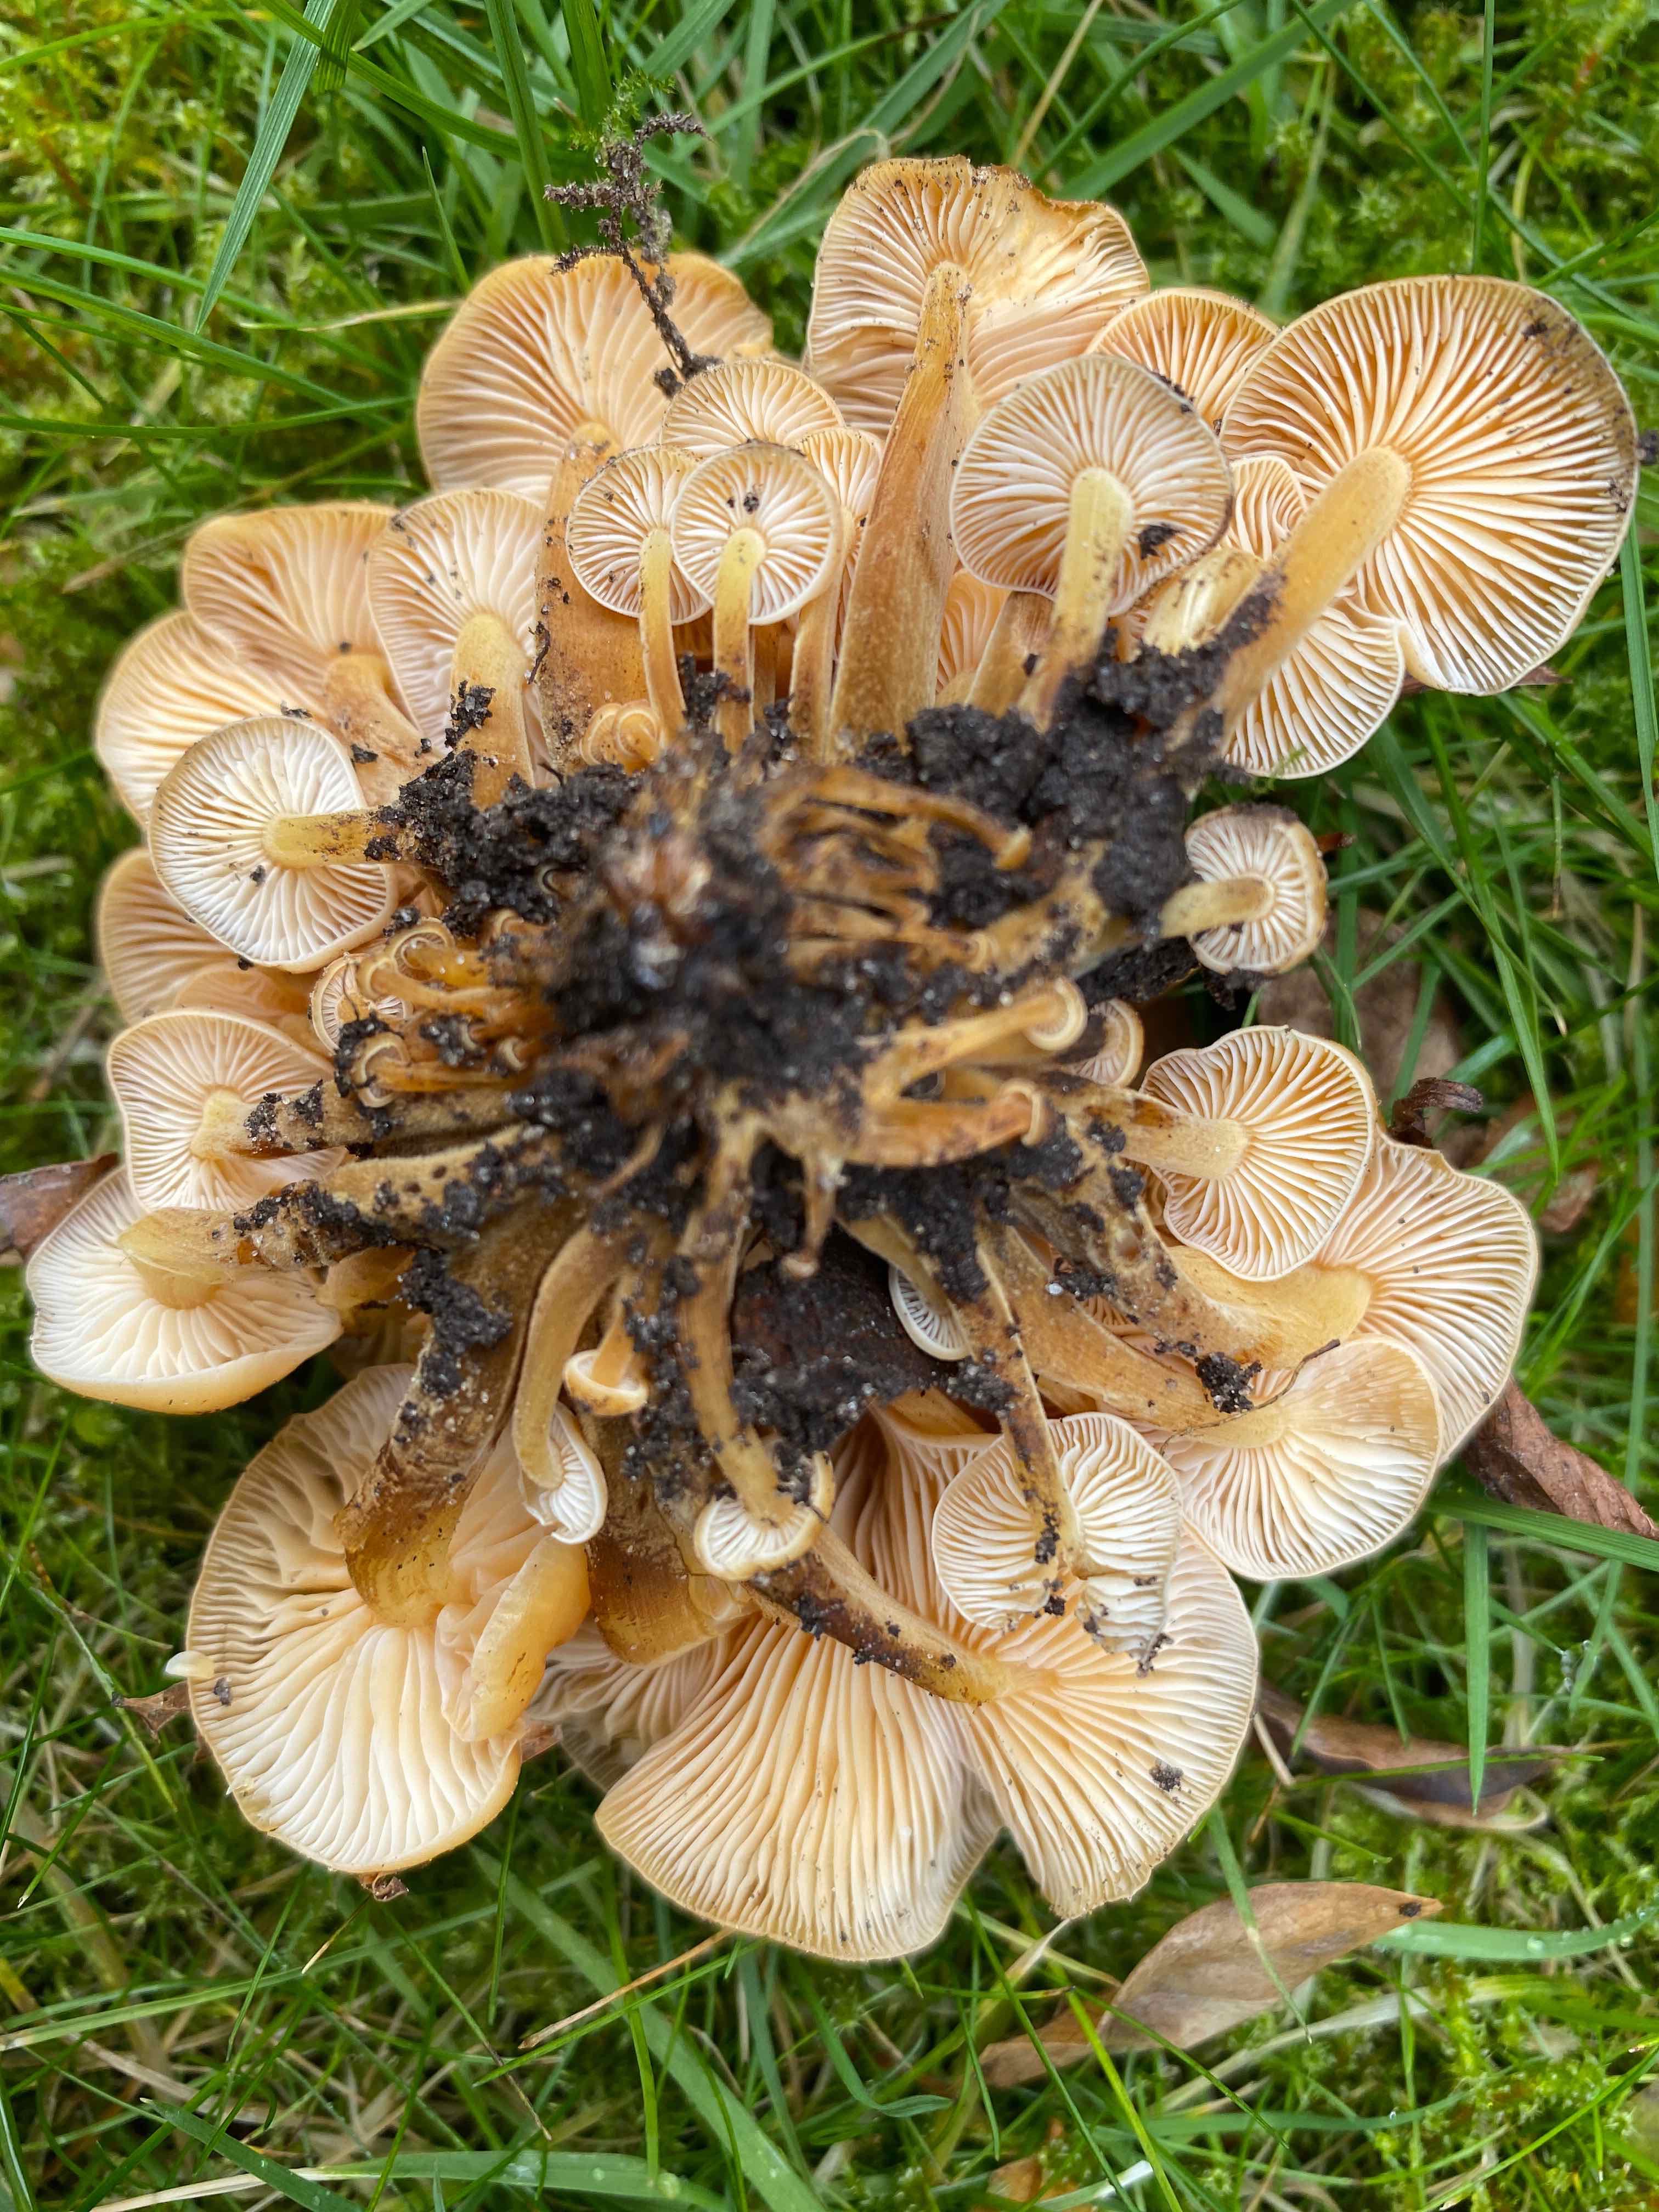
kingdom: Fungi
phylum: Basidiomycota
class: Agaricomycetes
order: Agaricales
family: Physalacriaceae
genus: Flammulina
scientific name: Flammulina velutipes
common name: gul fløjlsfod
